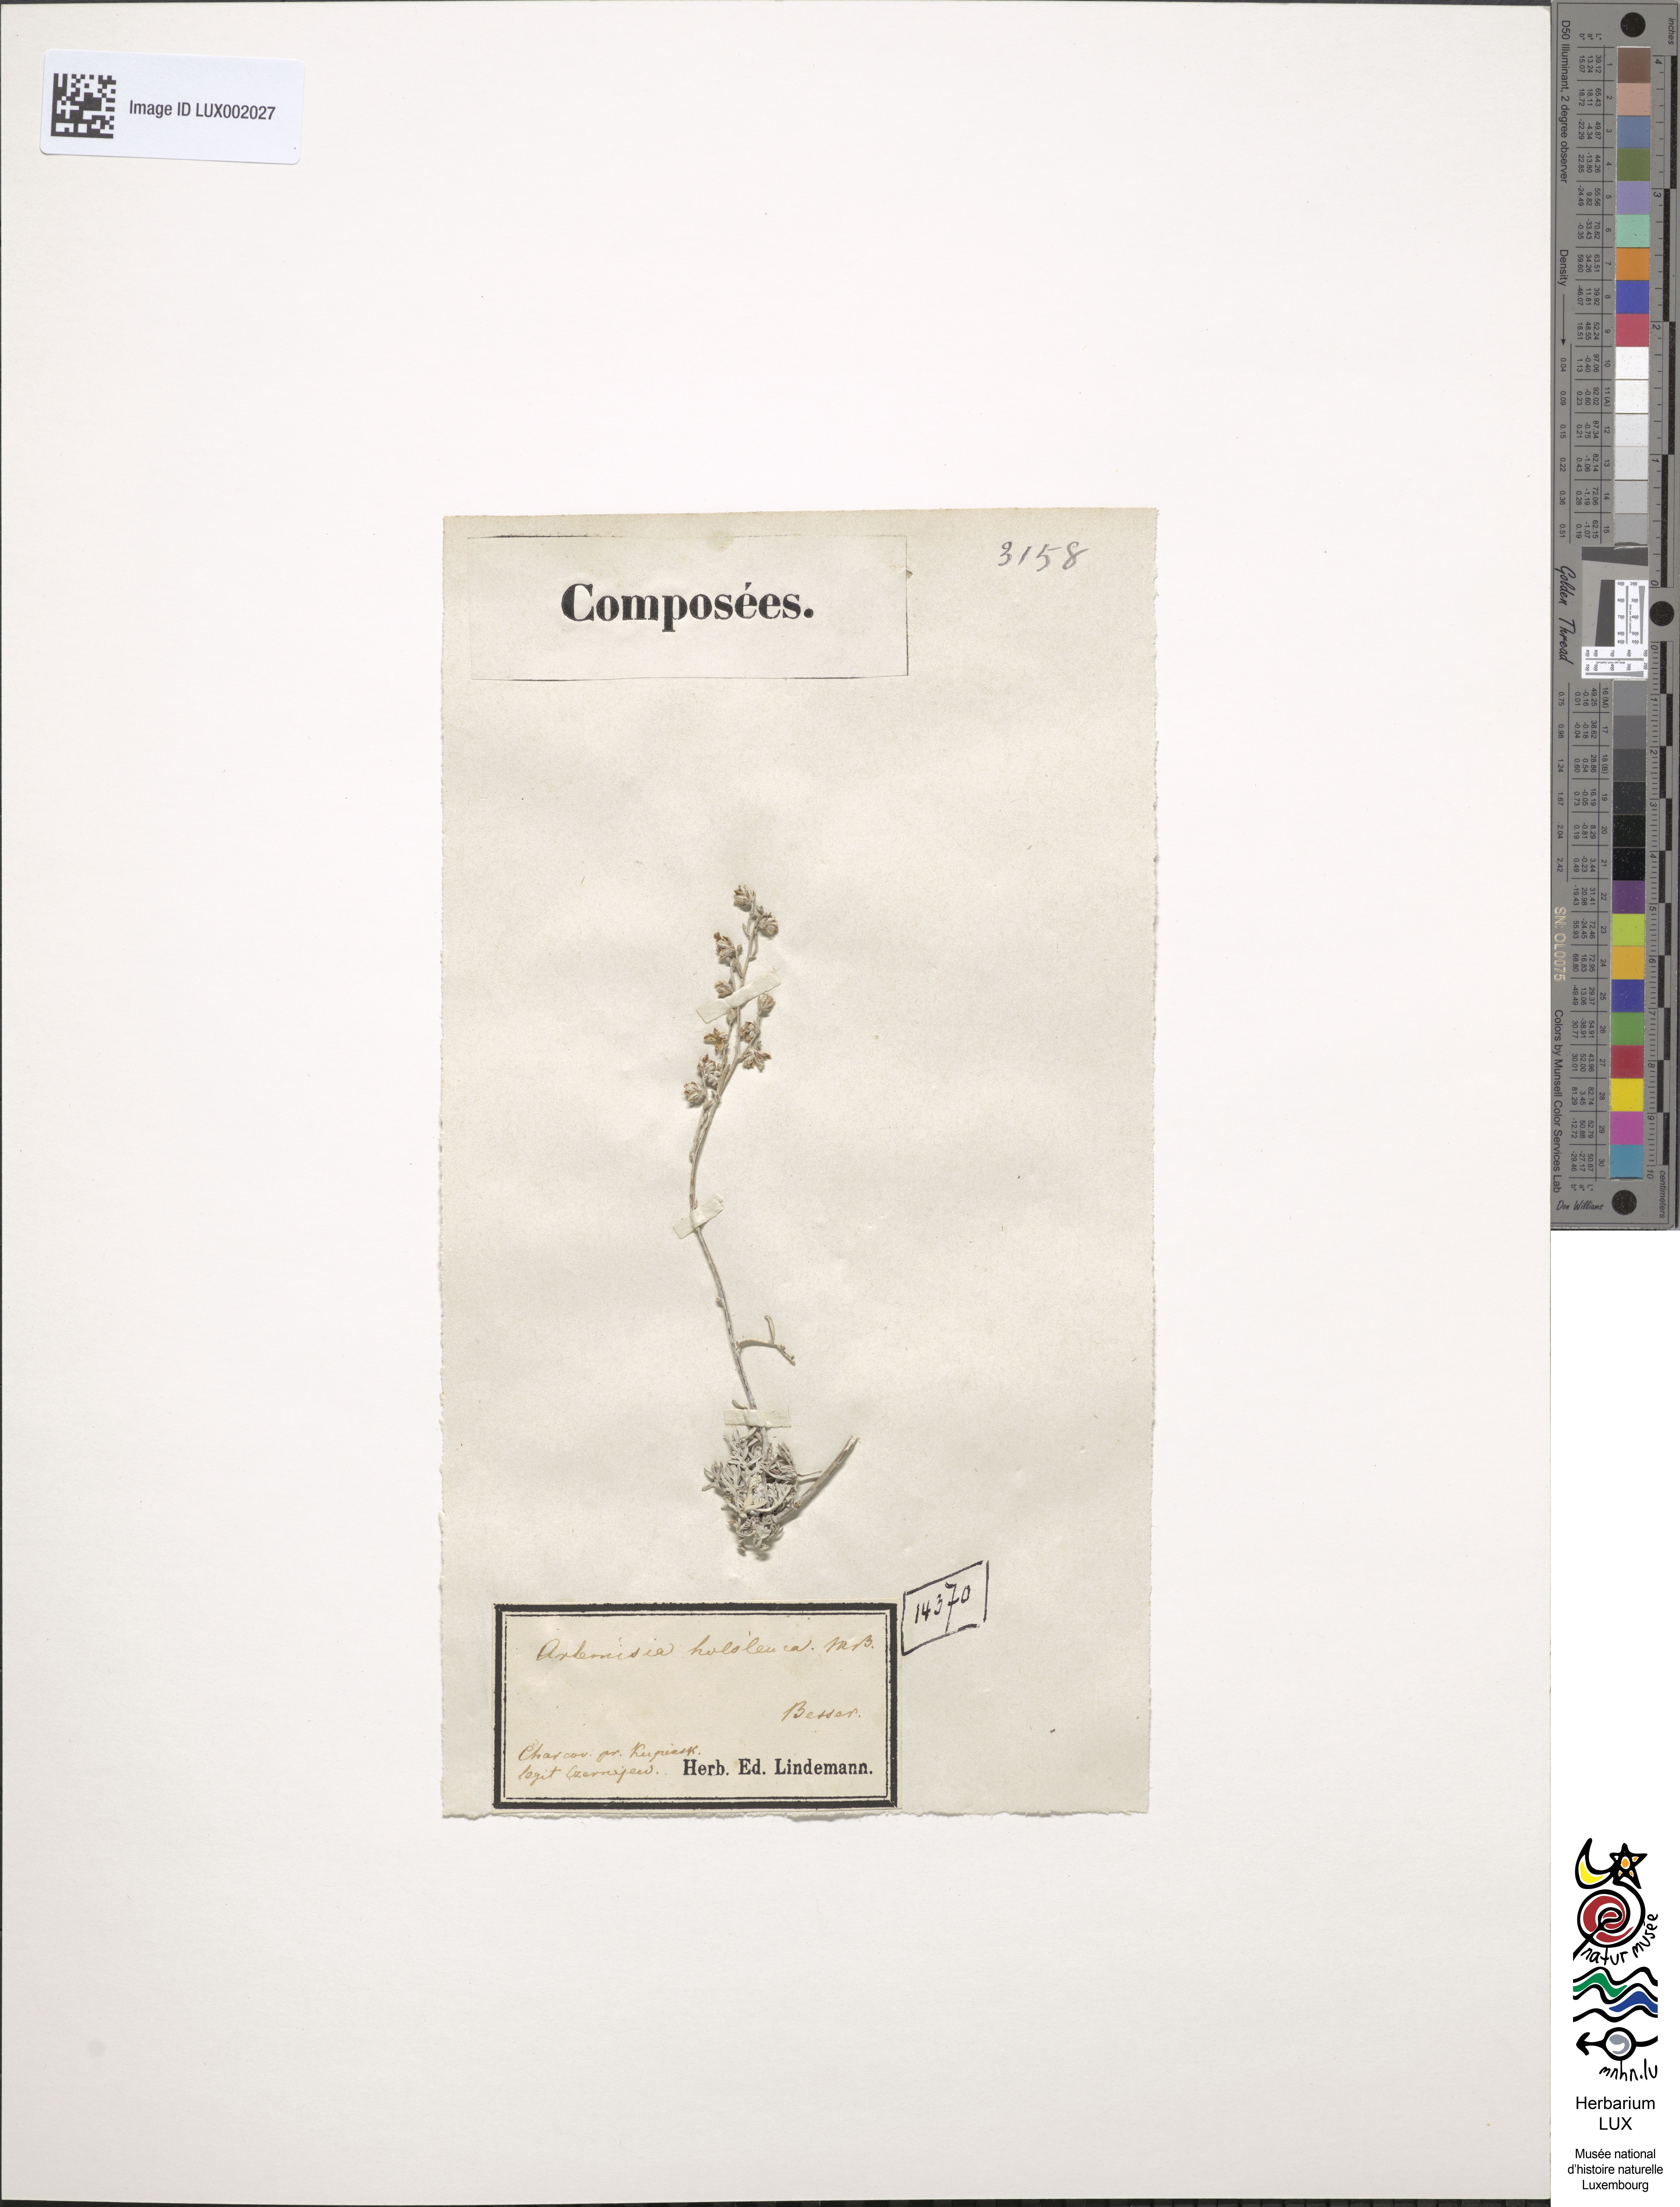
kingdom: Plantae
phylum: Tracheophyta
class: Magnoliopsida
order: Asterales
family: Asteraceae
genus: Artemisia
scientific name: Artemisia hololeuca
